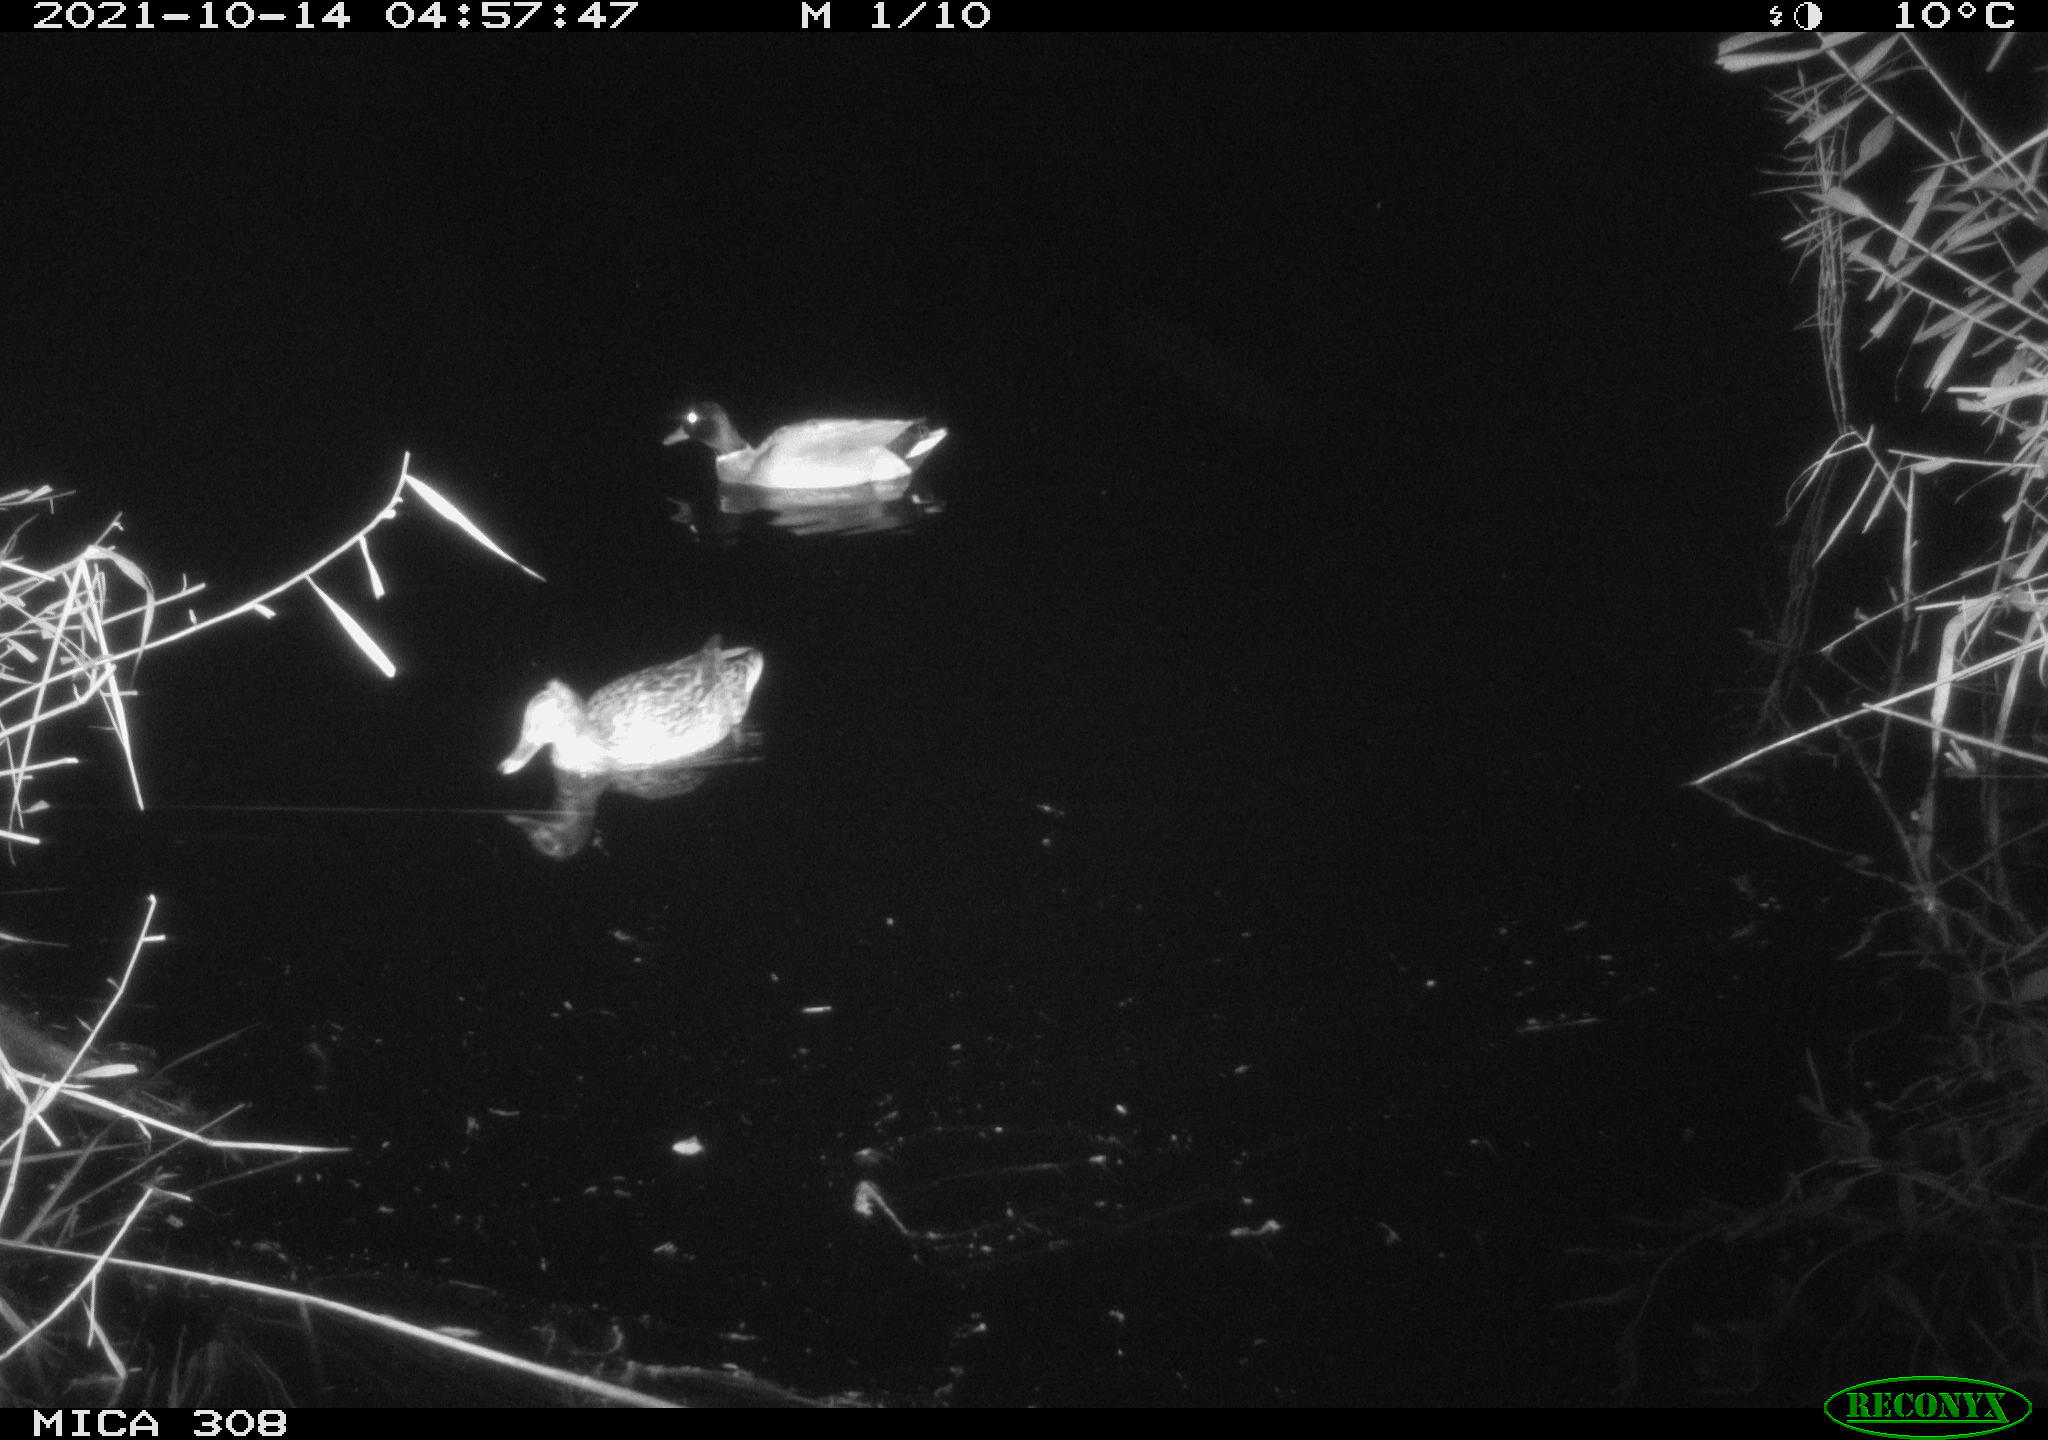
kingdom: Animalia
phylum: Chordata
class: Aves
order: Anseriformes
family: Anatidae
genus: Anas
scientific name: Anas platyrhynchos
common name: Mallard
